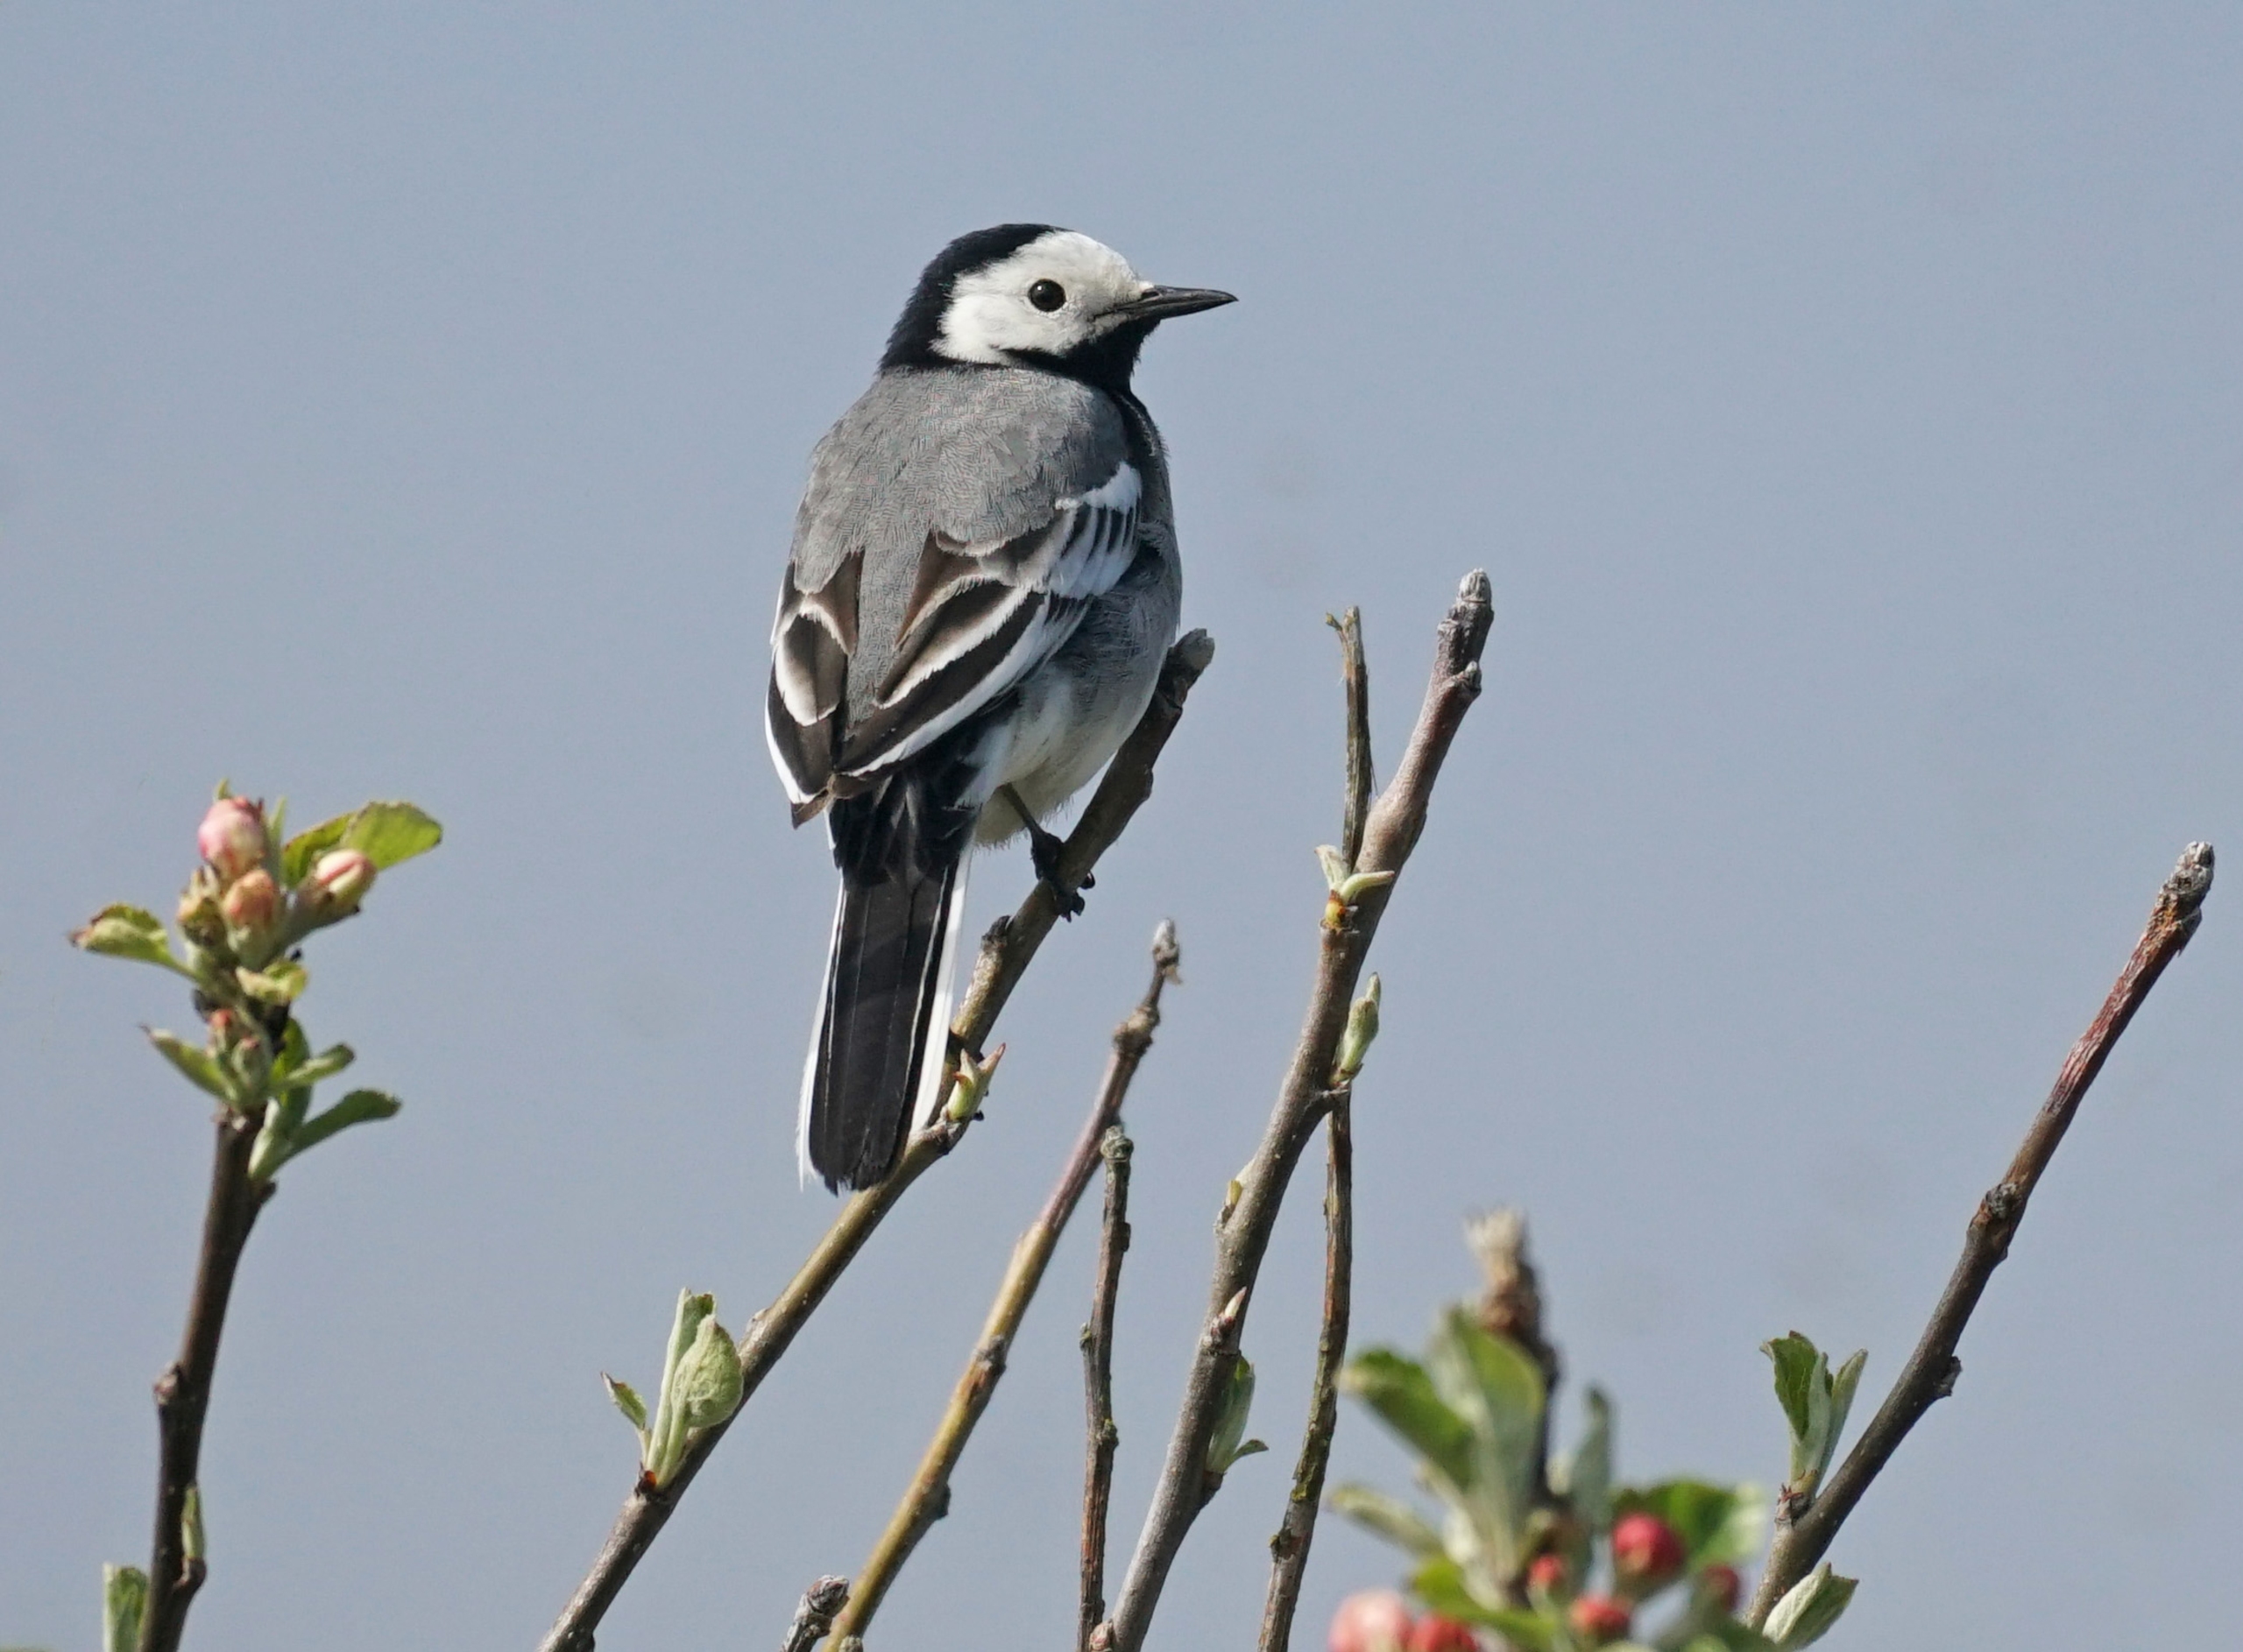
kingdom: Animalia
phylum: Chordata
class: Aves
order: Passeriformes
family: Motacillidae
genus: Motacilla
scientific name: Motacilla alba
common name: Hvid vipstjert
